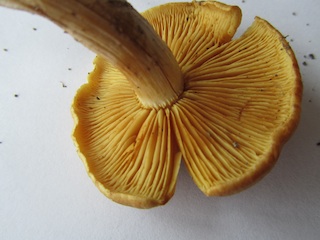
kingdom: Fungi
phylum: Basidiomycota
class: Agaricomycetes
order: Agaricales
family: Hymenogastraceae
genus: Gymnopilus
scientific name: Gymnopilus penetrans
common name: plettet flammehat
